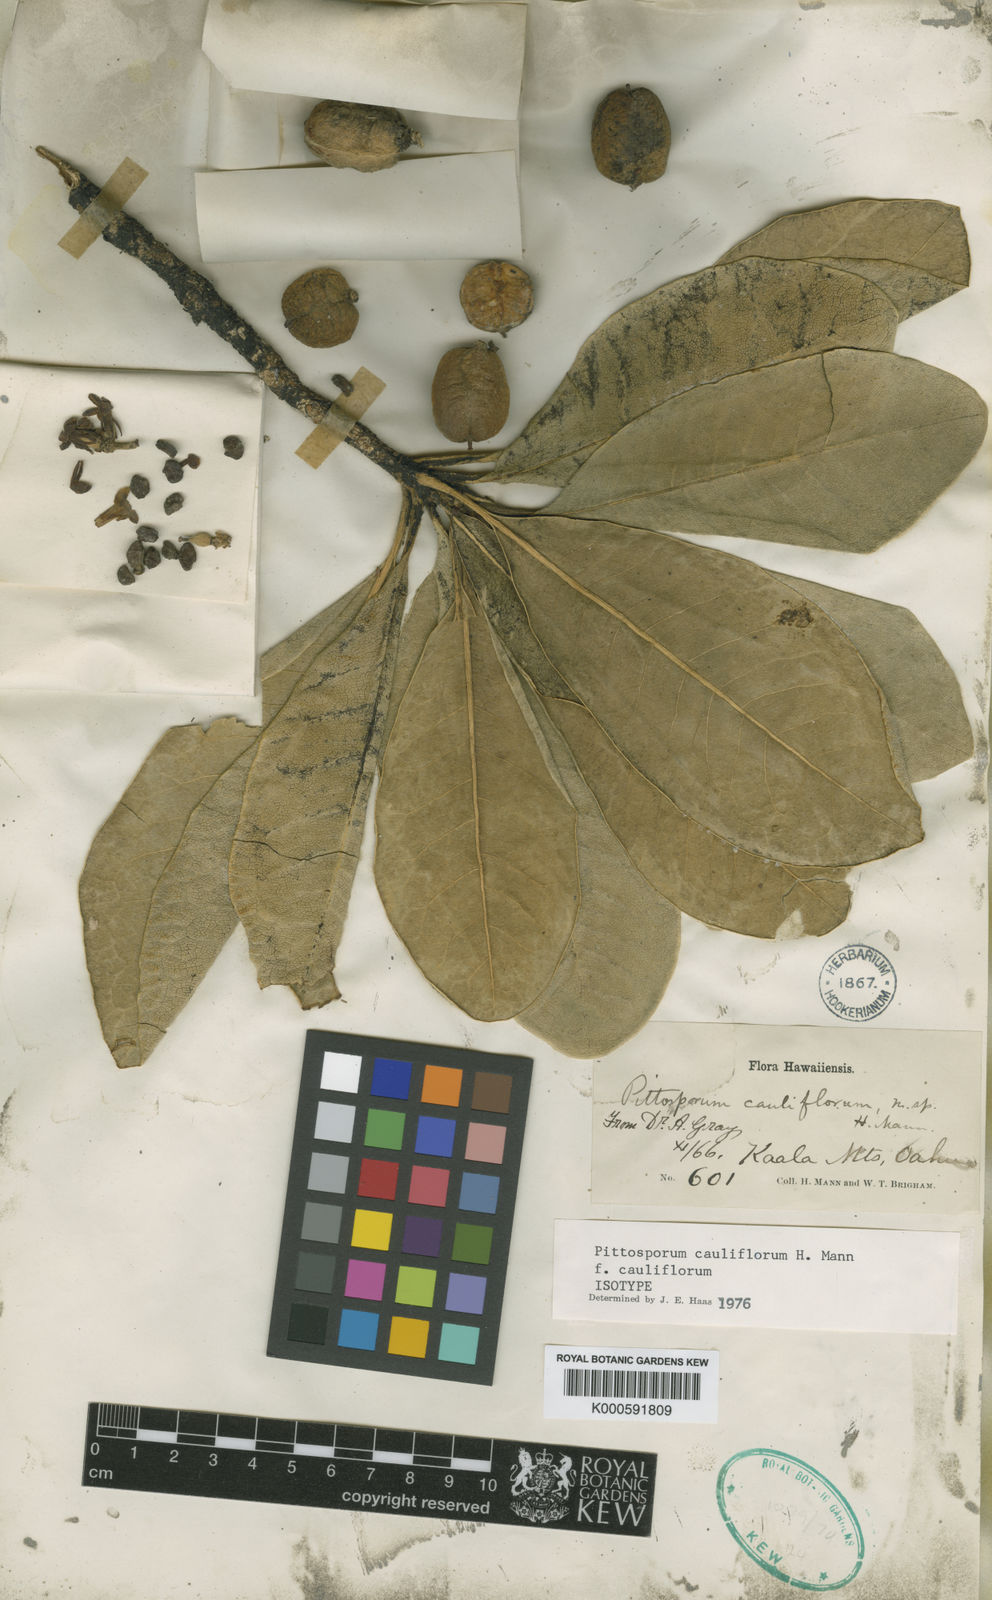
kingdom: Plantae
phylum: Tracheophyta
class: Magnoliopsida
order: Apiales
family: Pittosporaceae
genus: Pittosporum
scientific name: Pittosporum confertiflorum
